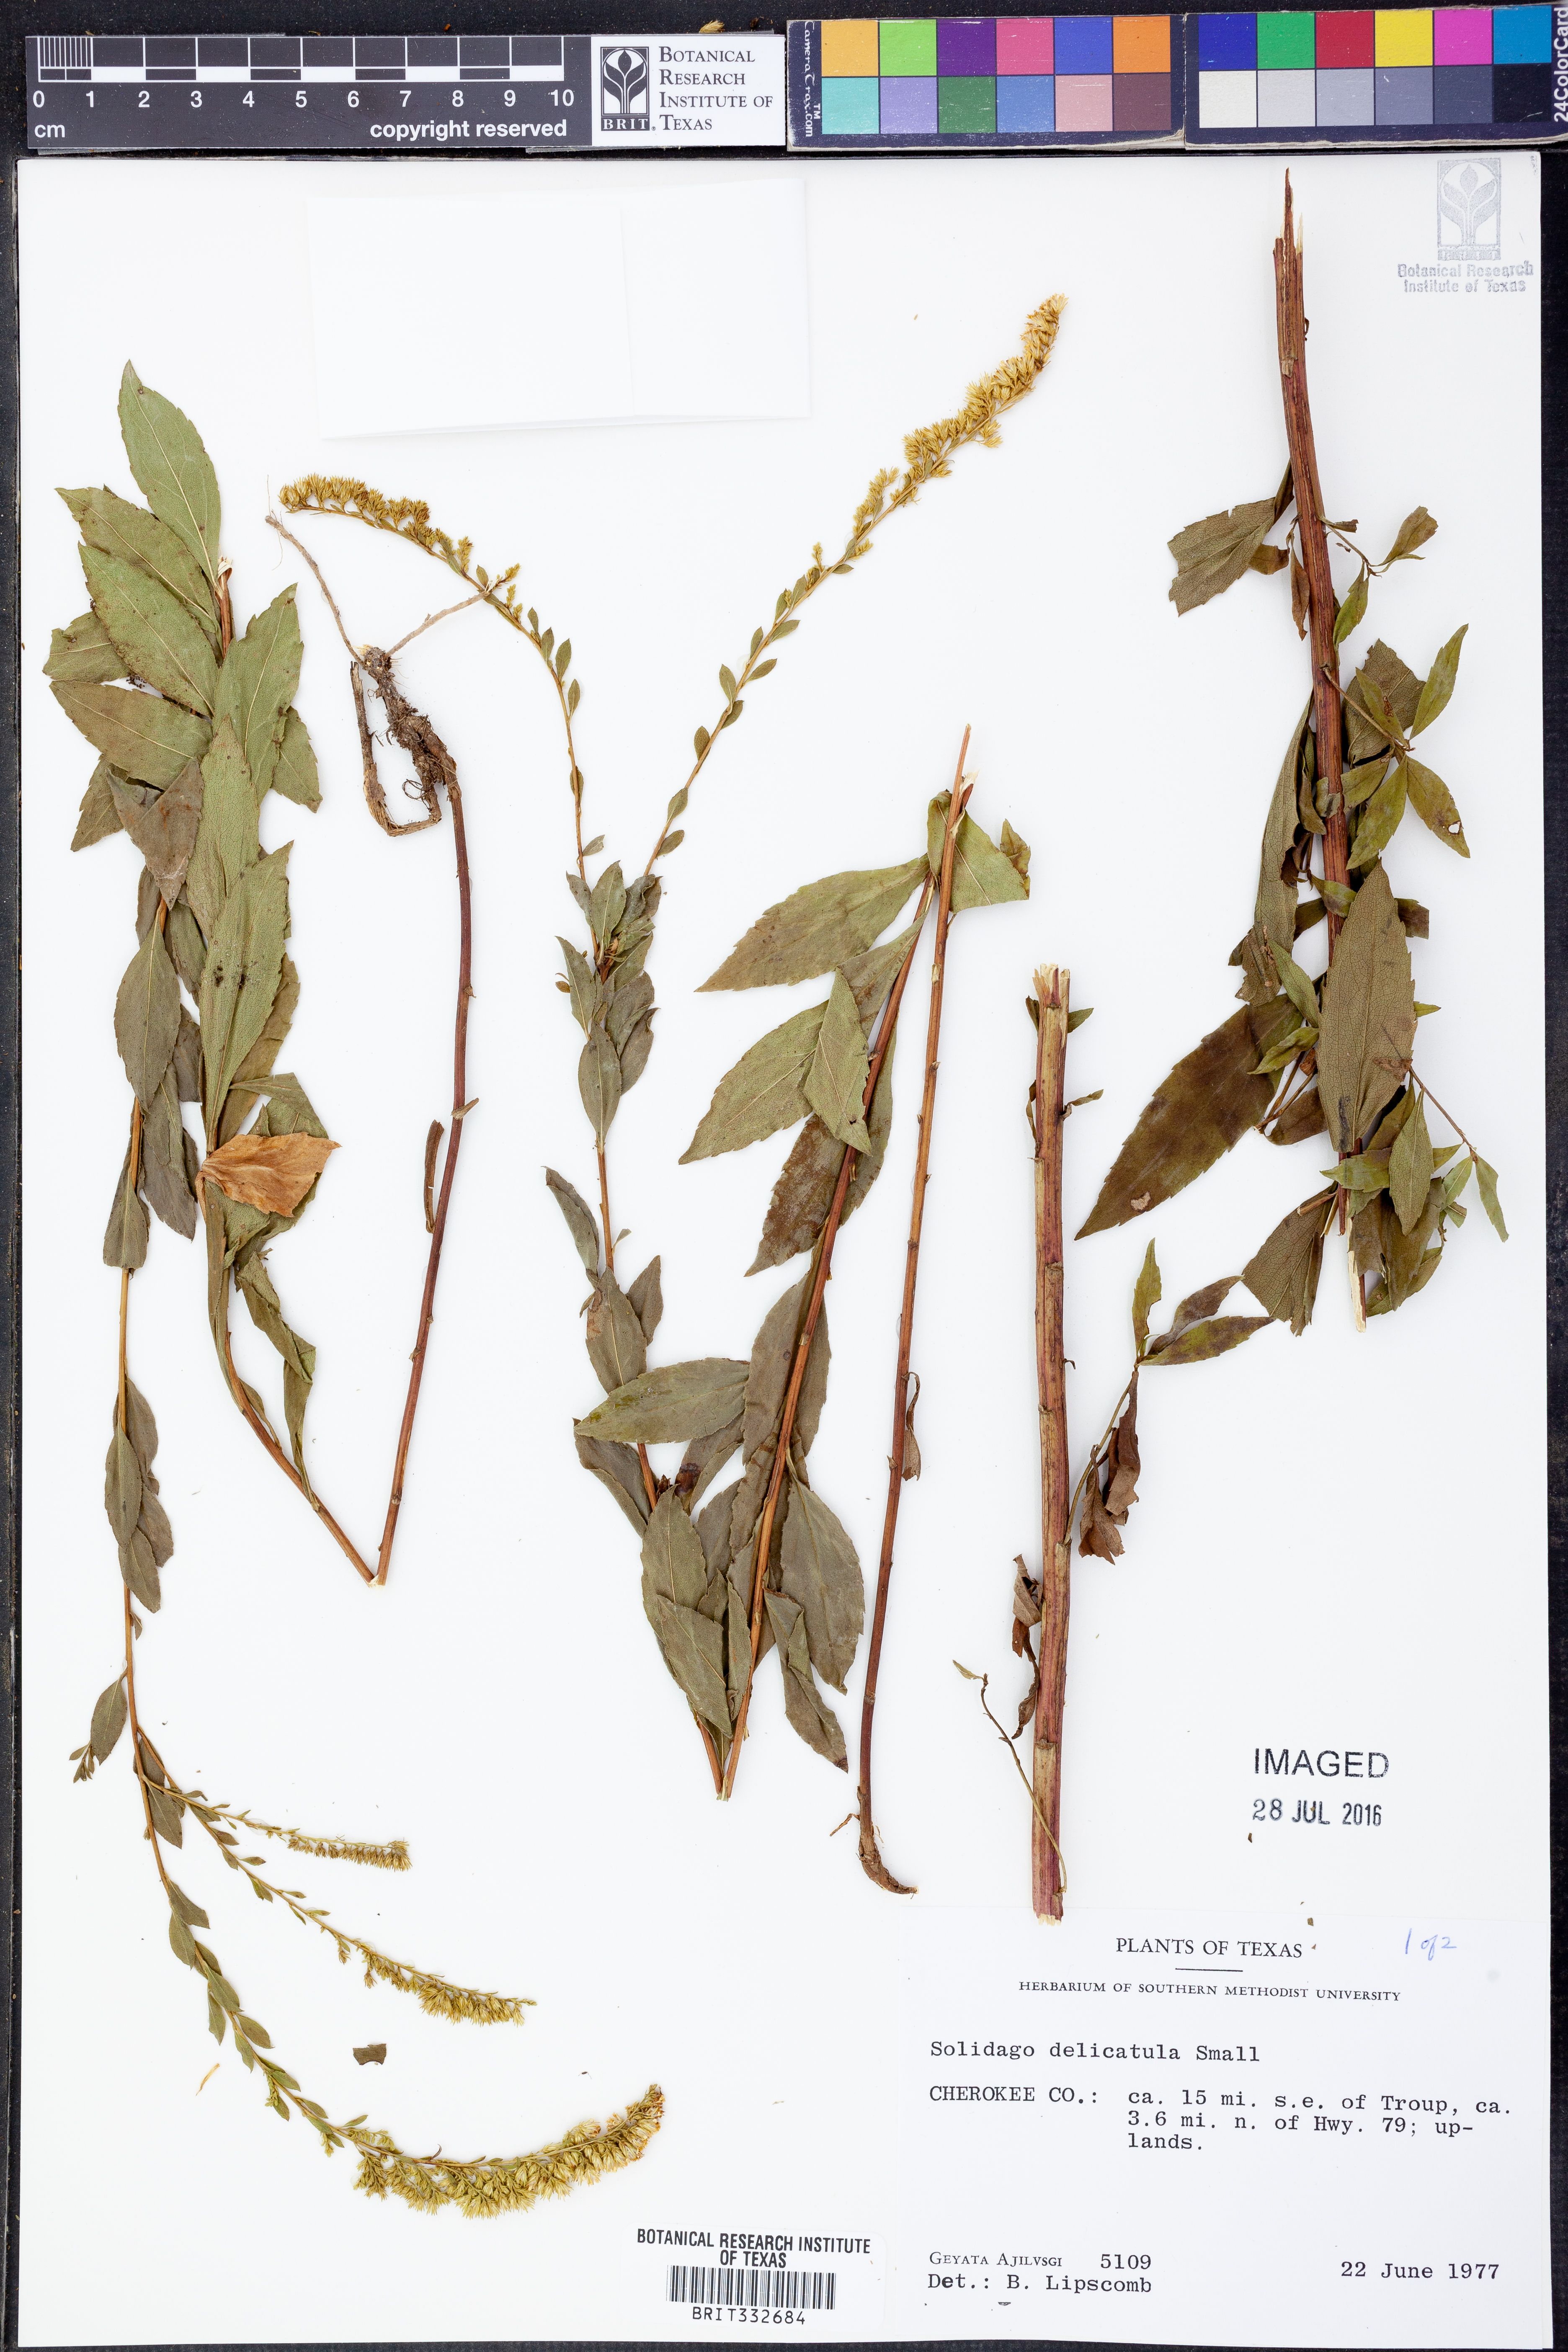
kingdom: Plantae
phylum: Tracheophyta
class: Magnoliopsida
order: Asterales
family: Asteraceae
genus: Solidago
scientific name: Solidago delicatula
